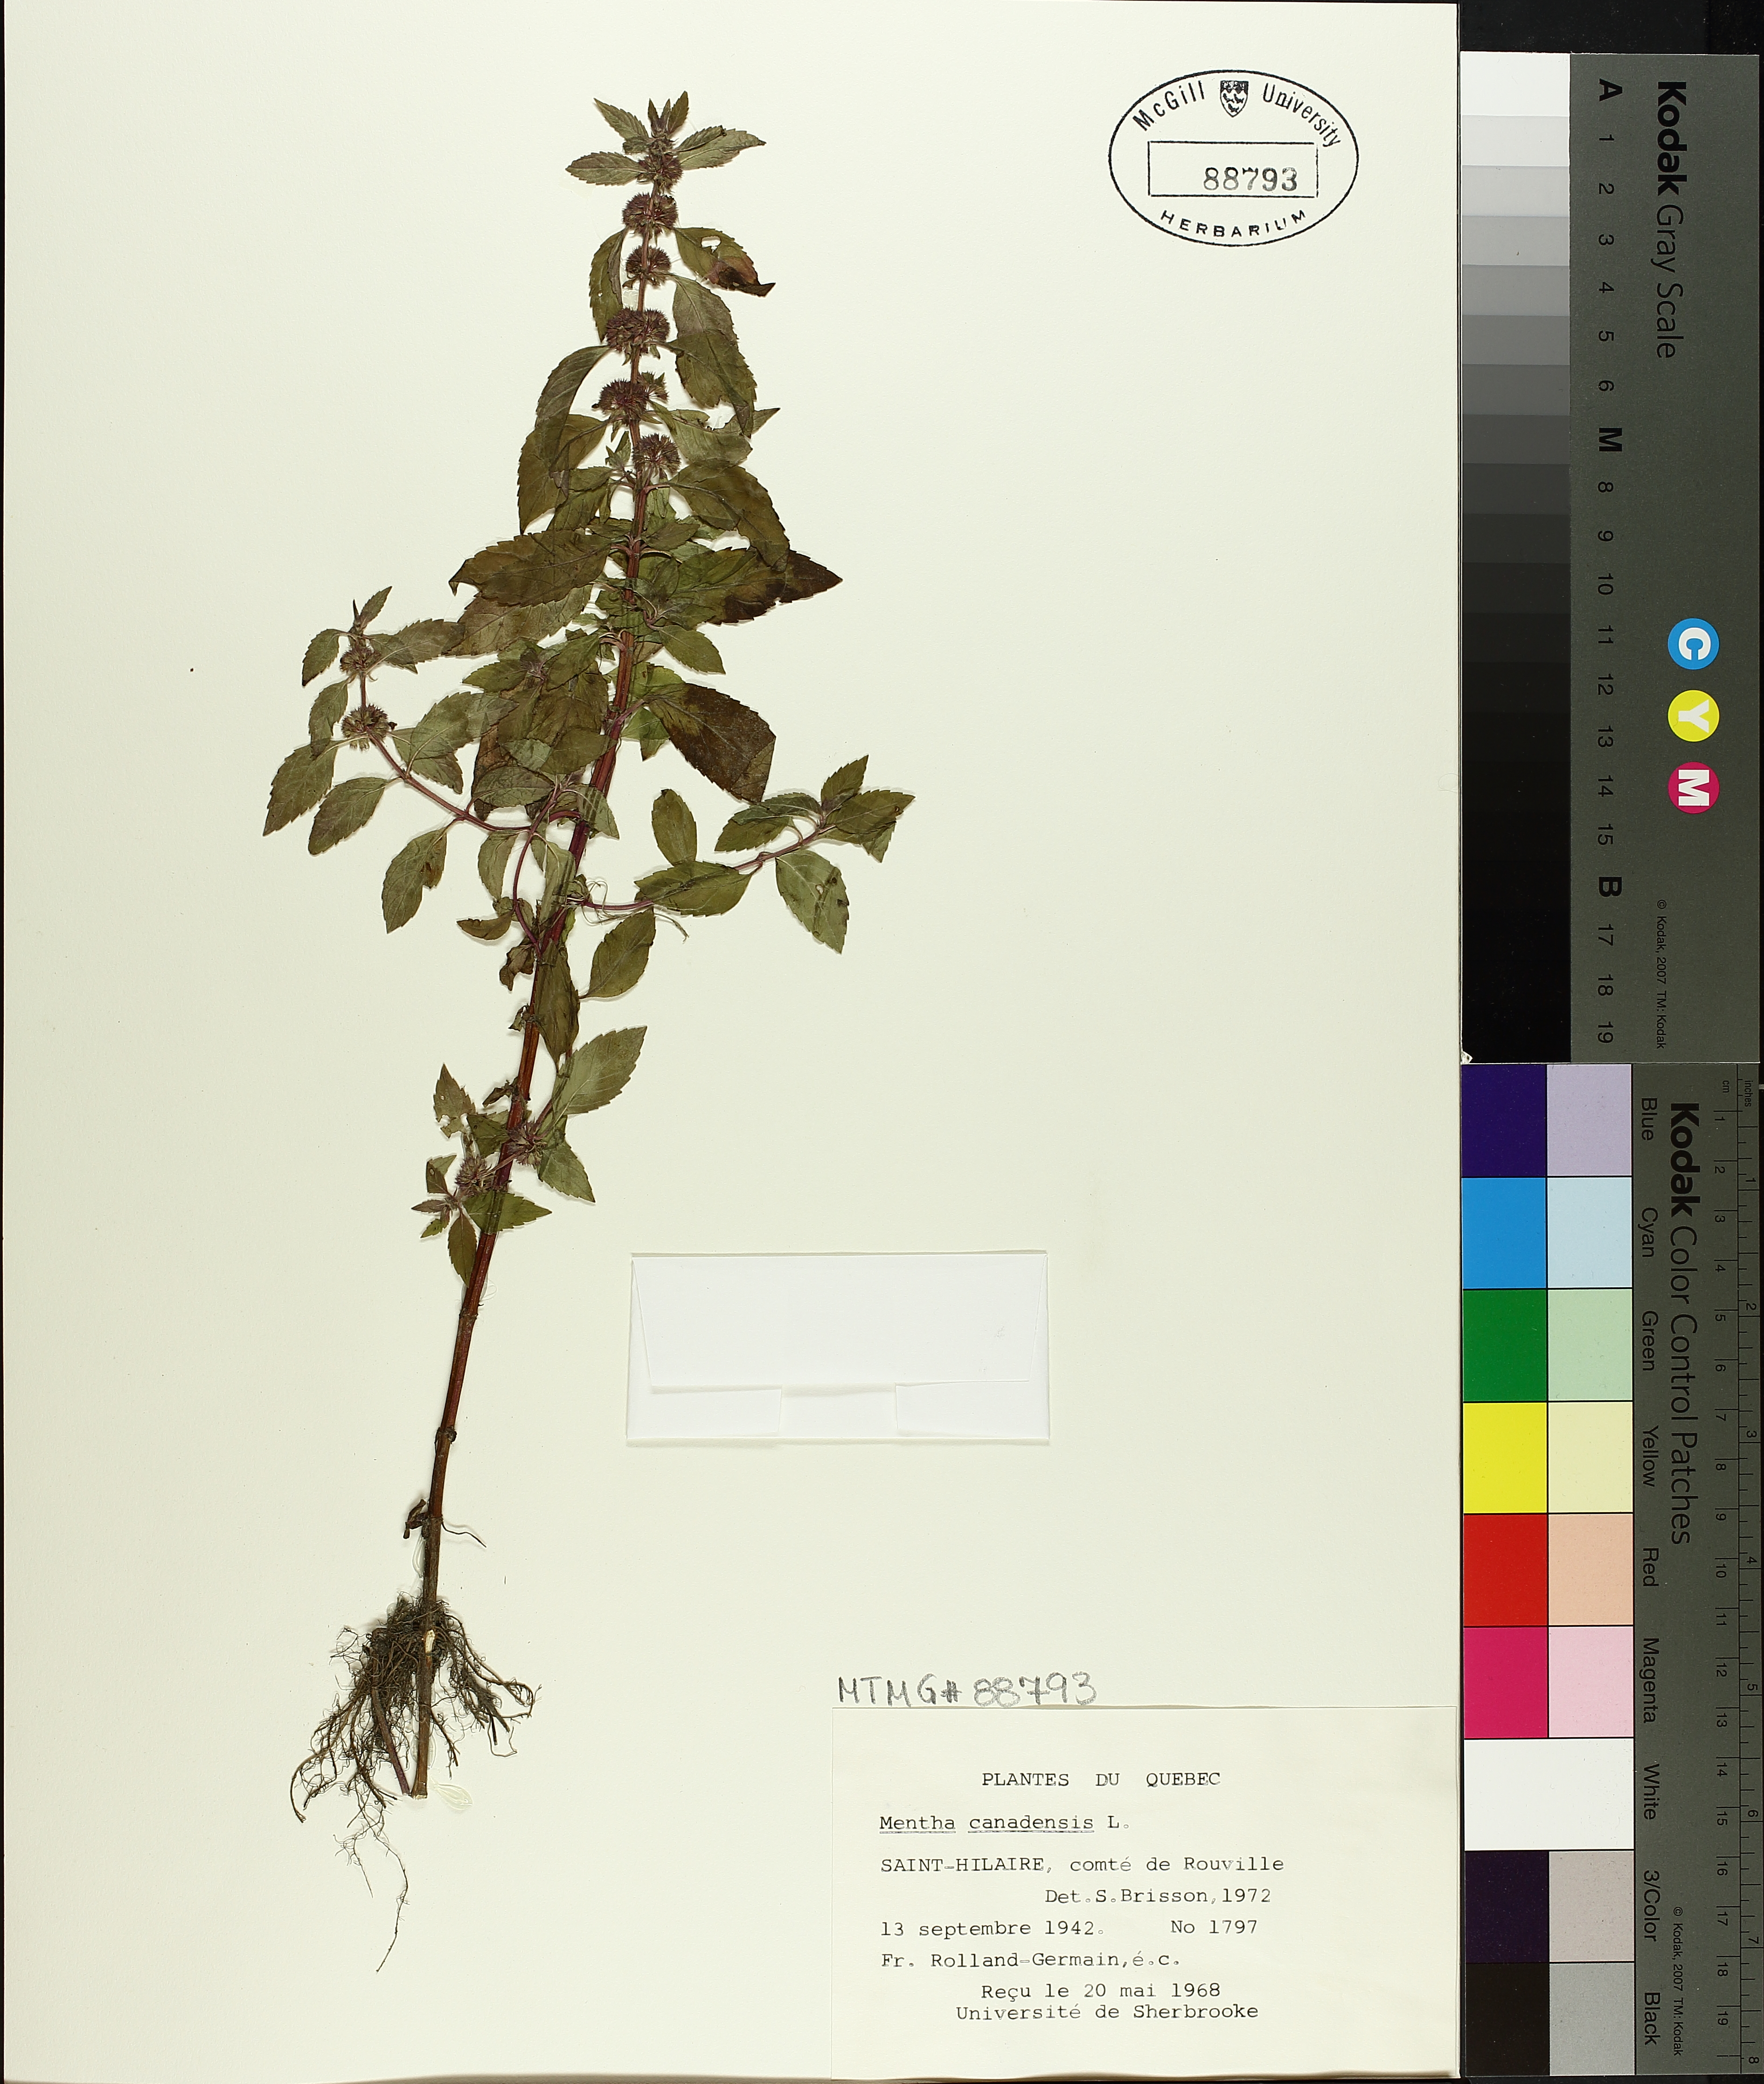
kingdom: Plantae
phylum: Tracheophyta
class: Magnoliopsida
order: Lamiales
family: Lamiaceae
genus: Mentha
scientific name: Mentha canadensis
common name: American corn mint
